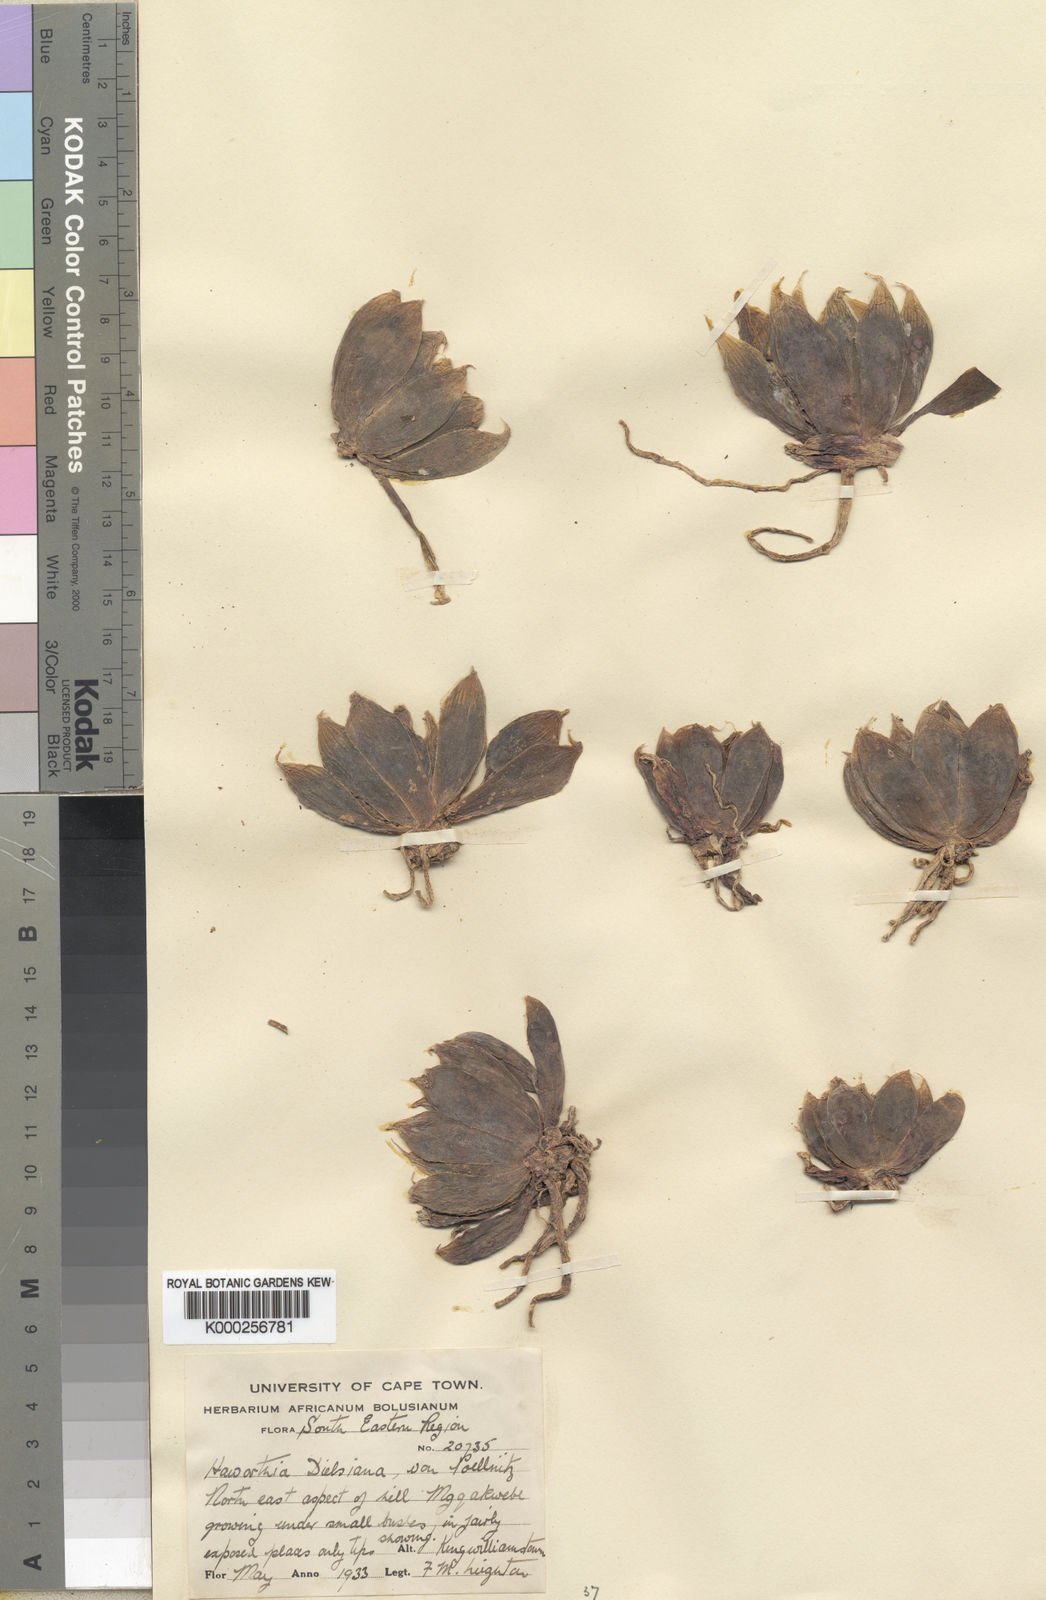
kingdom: Plantae
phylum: Tracheophyta
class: Liliopsida
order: Asparagales
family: Asphodelaceae
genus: Haworthia
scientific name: Haworthia cooperi
